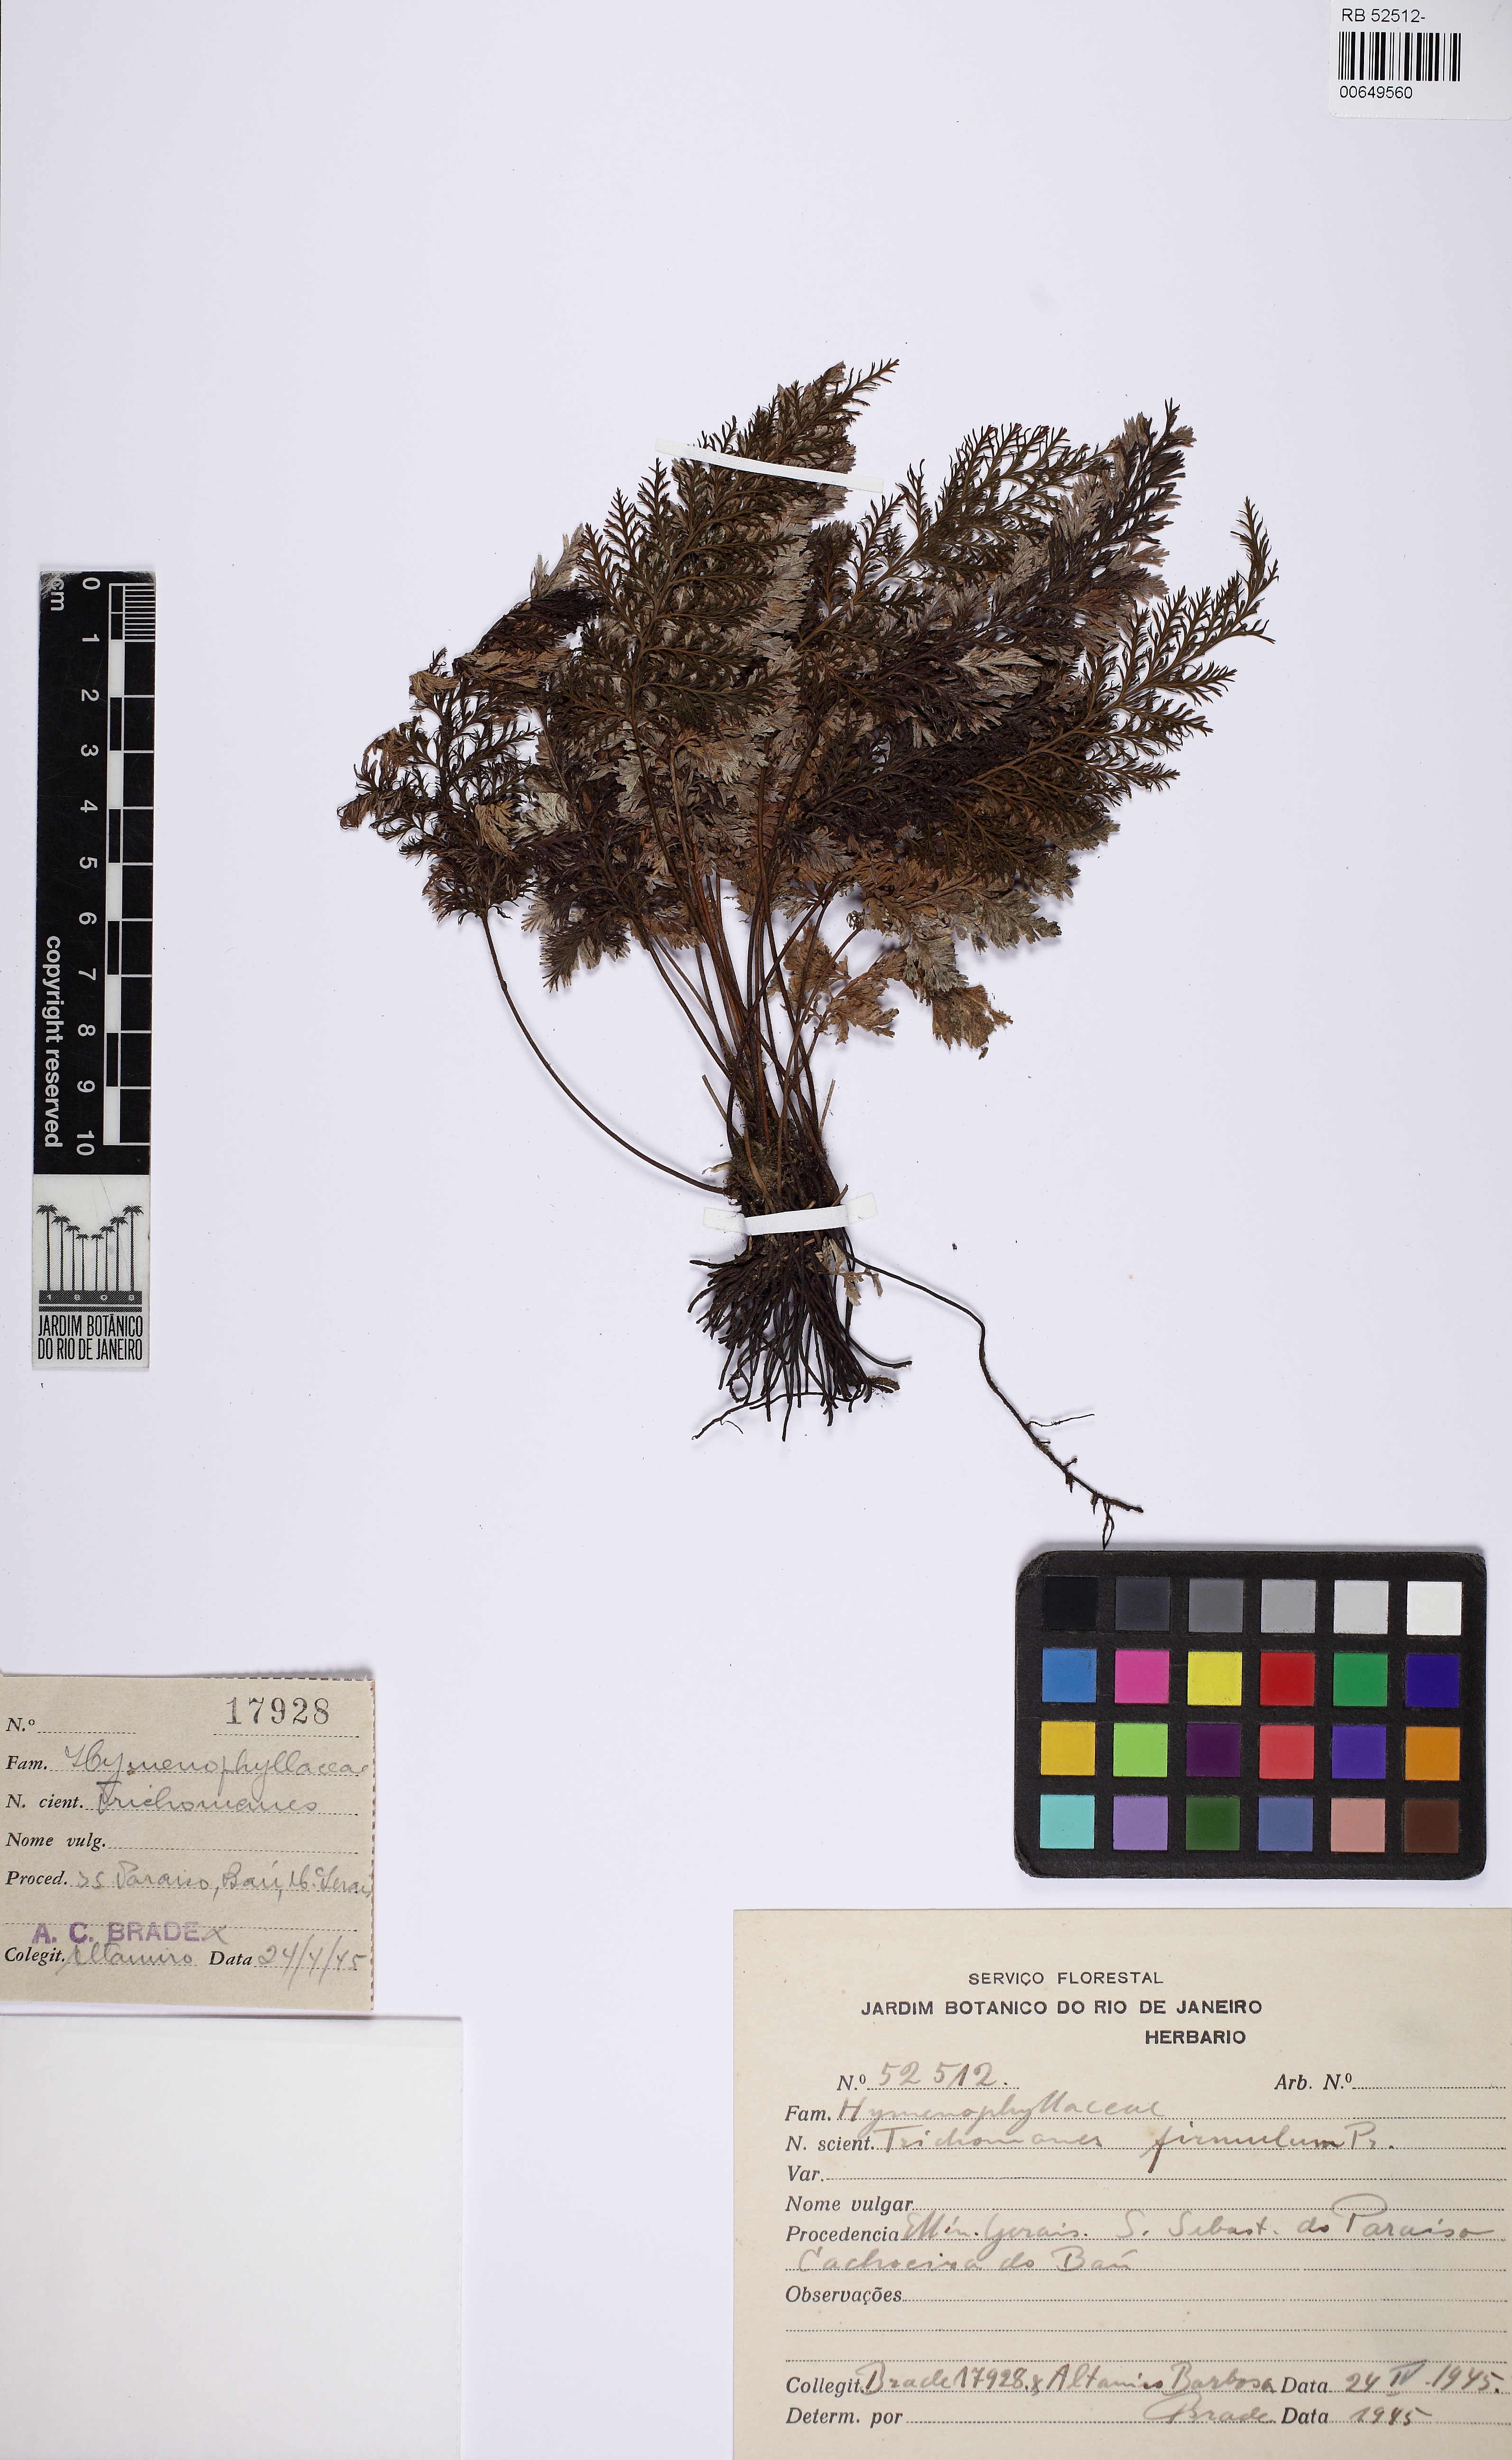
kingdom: Plantae
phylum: Tracheophyta
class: Polypodiopsida
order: Hymenophyllales
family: Hymenophyllaceae
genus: Abrodictyum
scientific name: Abrodictyum rigidum
